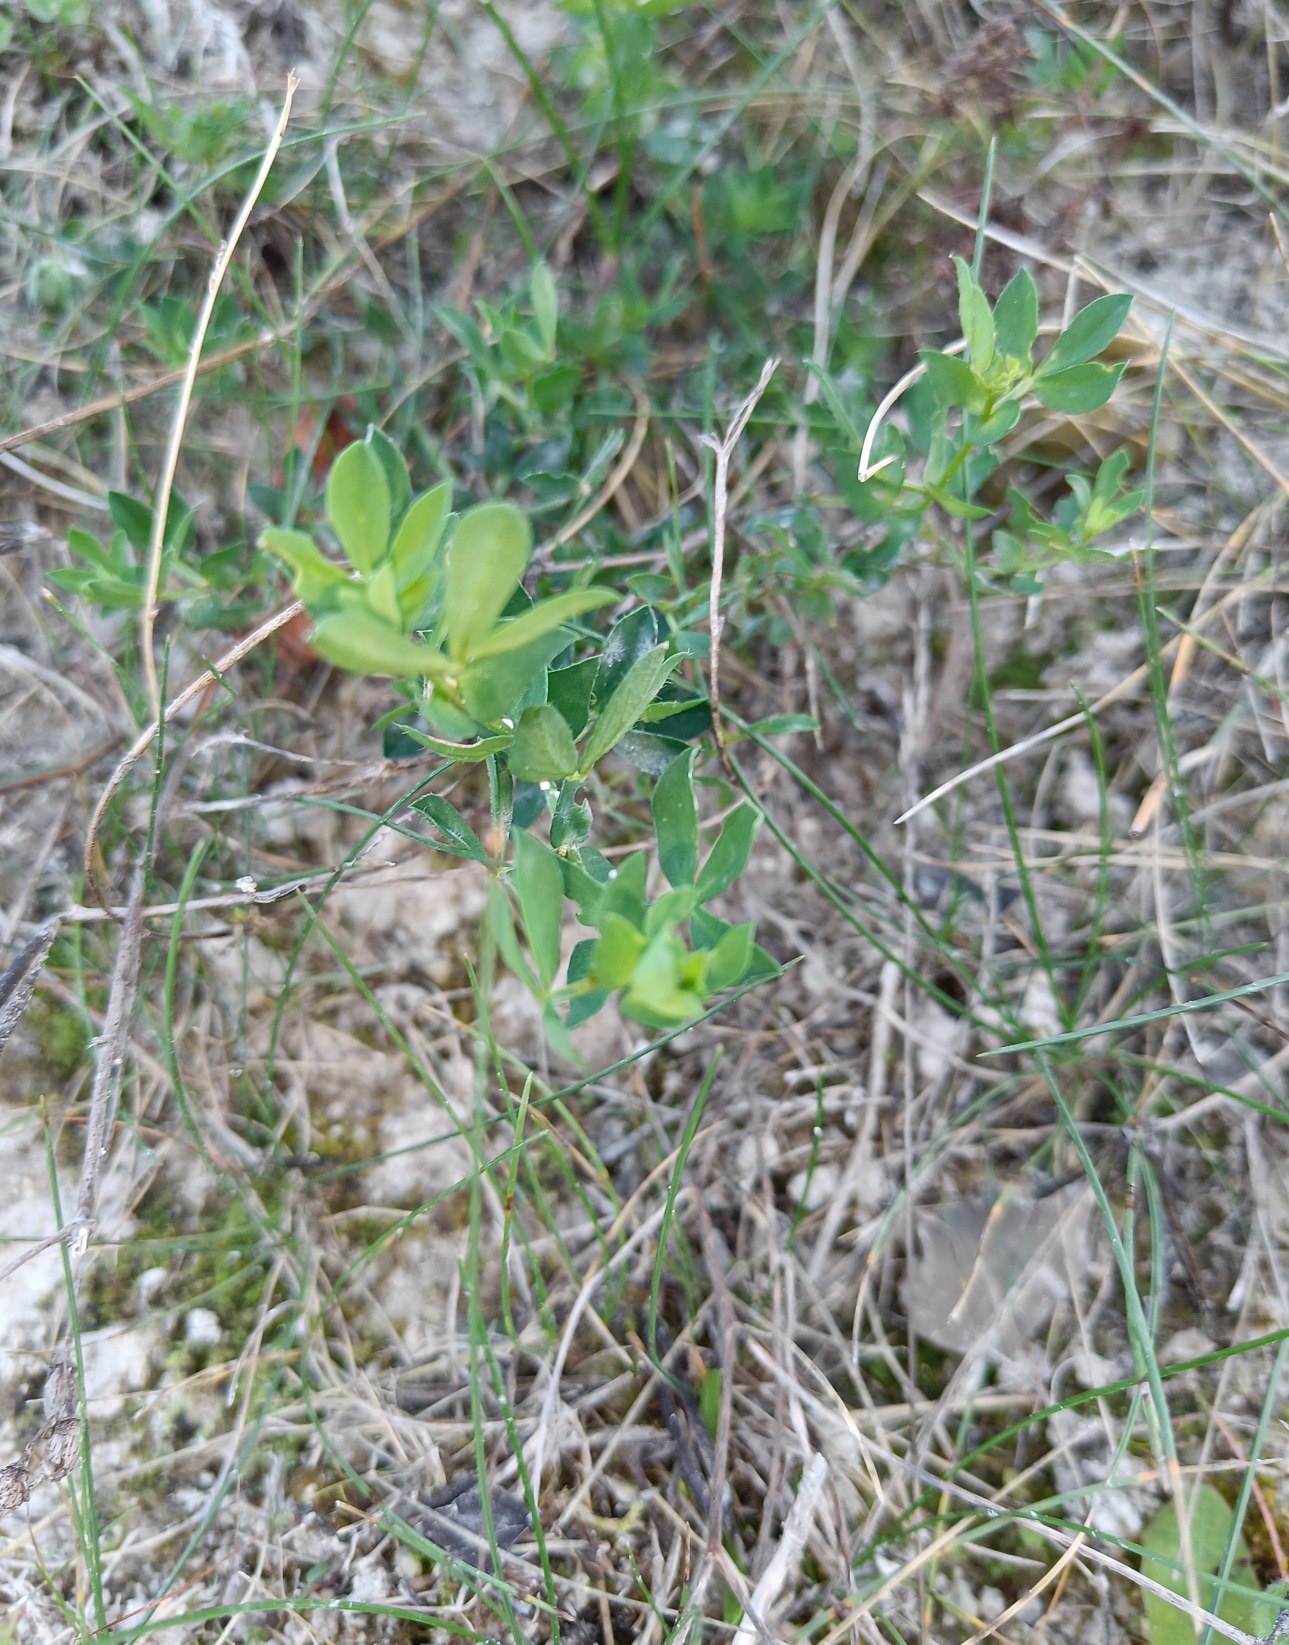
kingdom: Plantae
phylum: Tracheophyta
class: Magnoliopsida
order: Fabales
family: Fabaceae
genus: Lotus
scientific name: Lotus corniculatus
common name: Almindelig kællingetand
